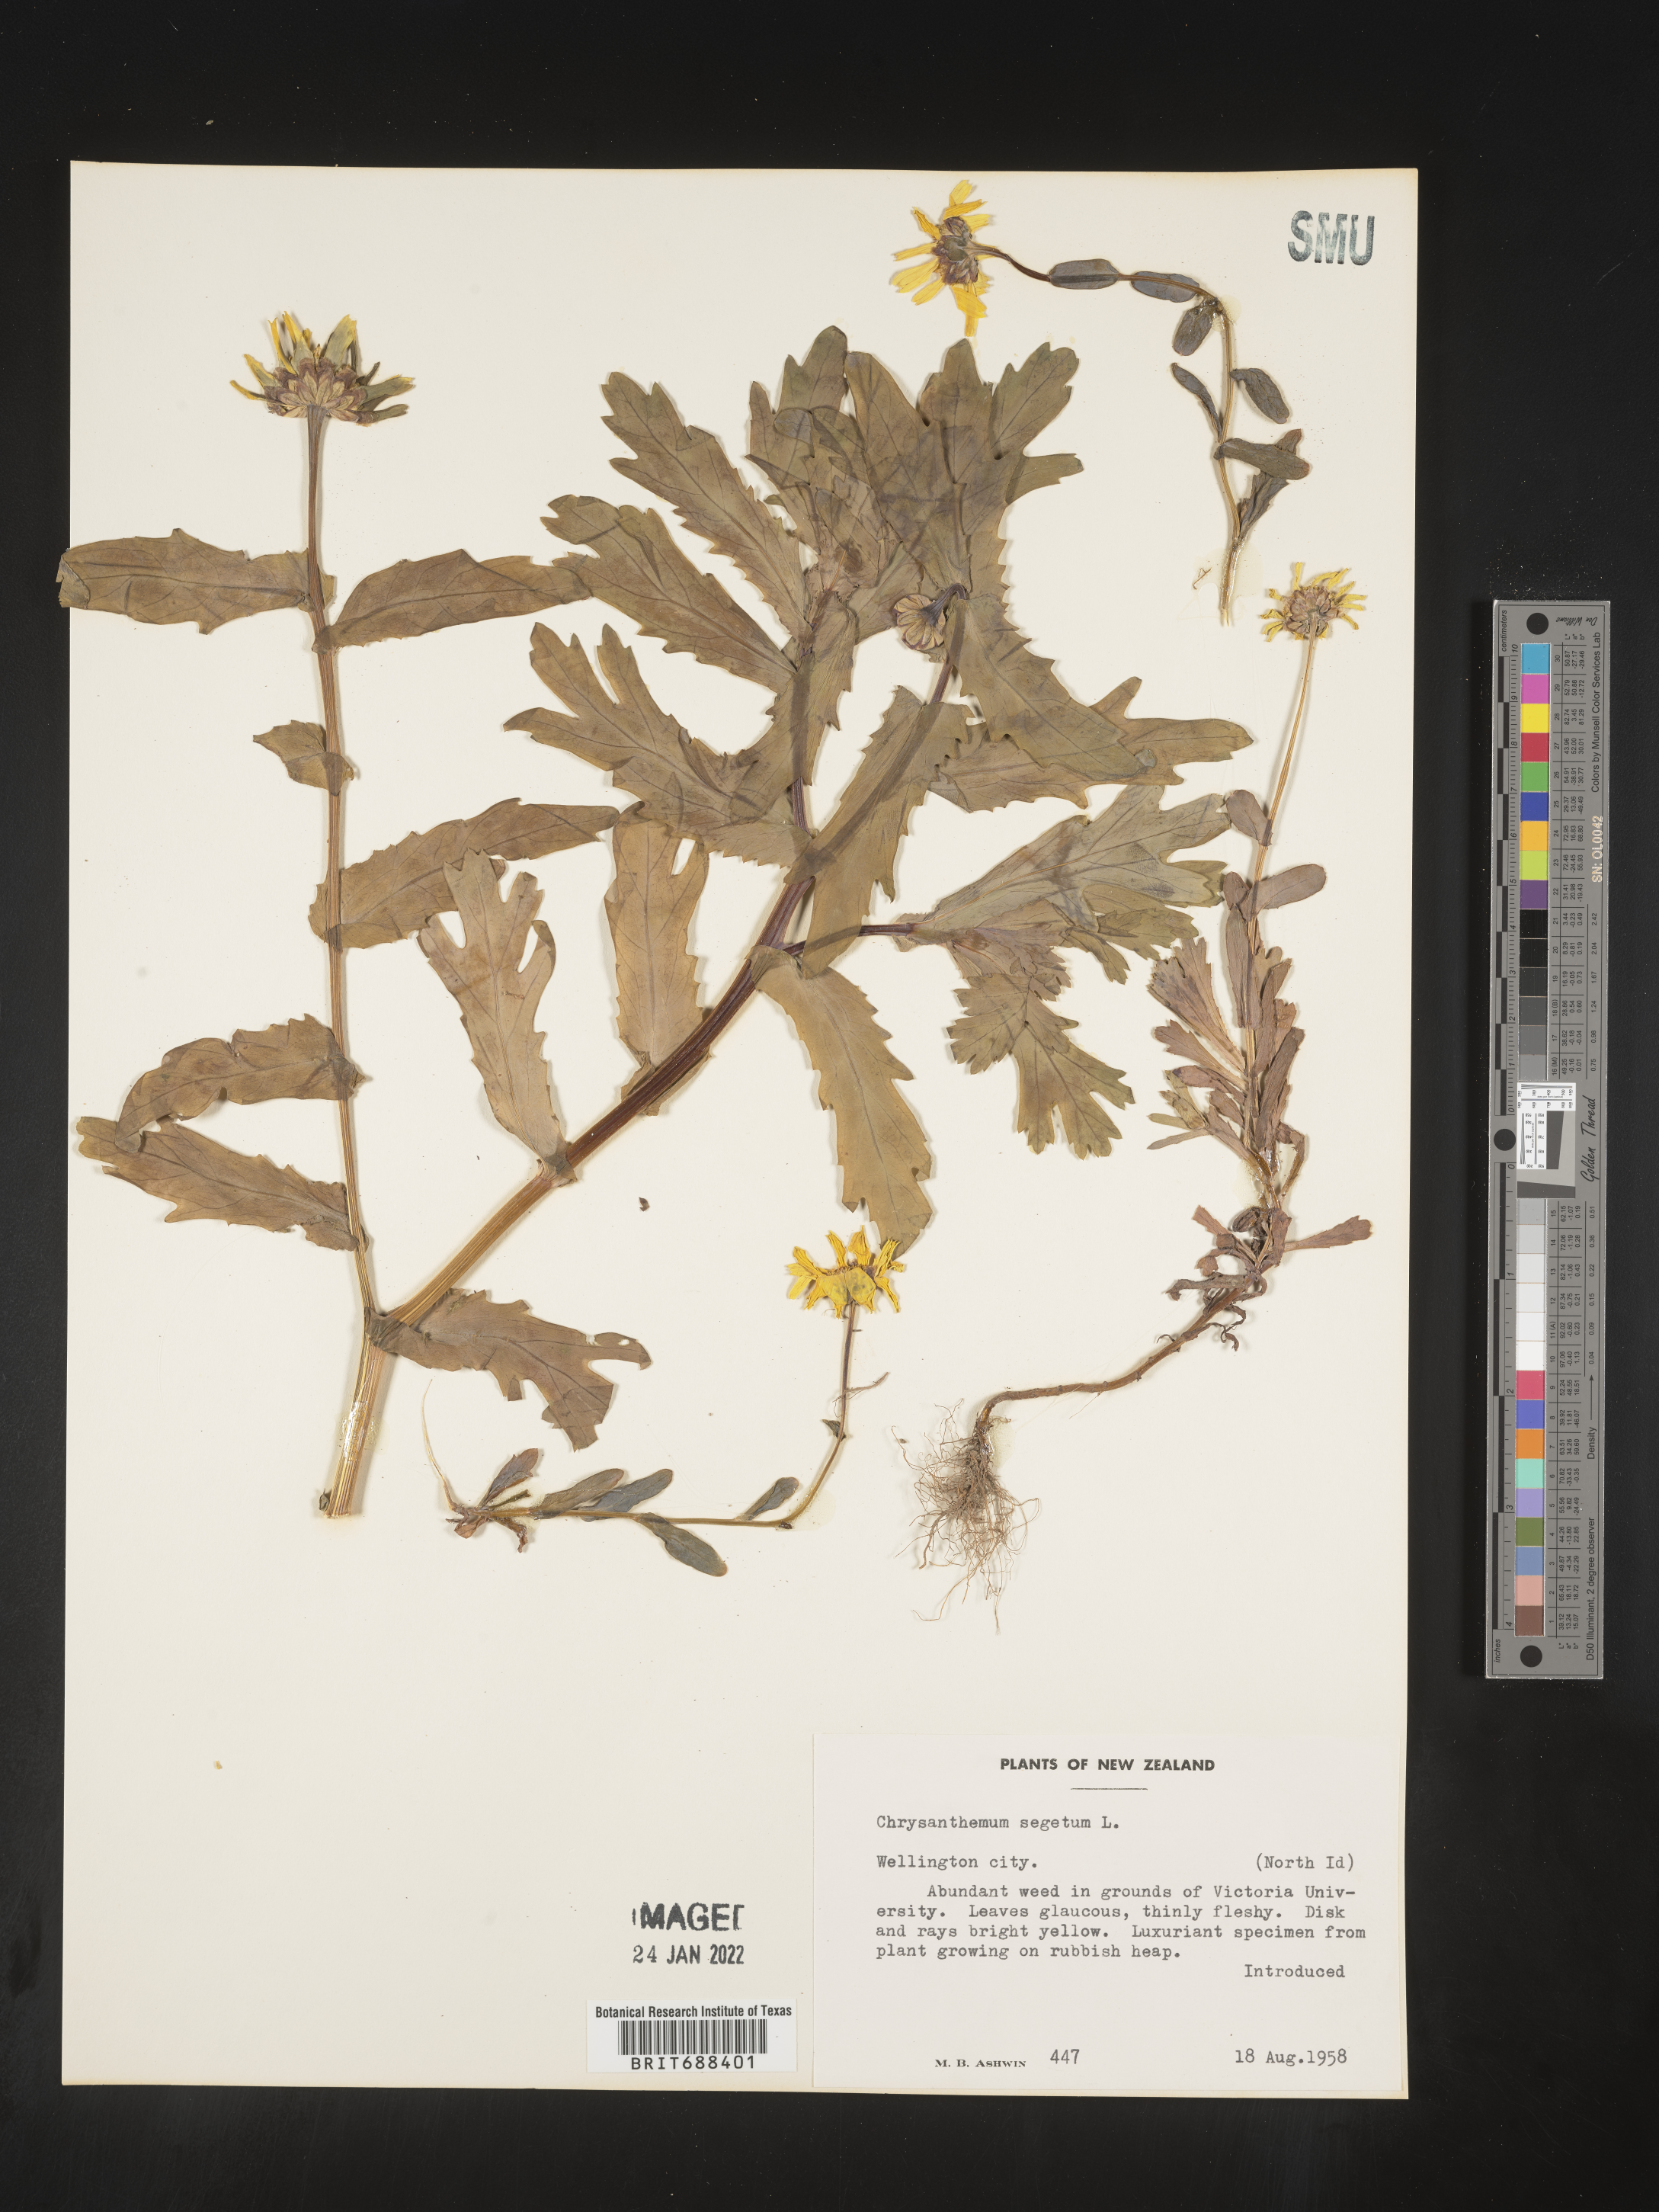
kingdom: Plantae
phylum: Tracheophyta
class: Magnoliopsida
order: Asterales
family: Asteraceae
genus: Chrysanthemum
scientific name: Chrysanthemum
